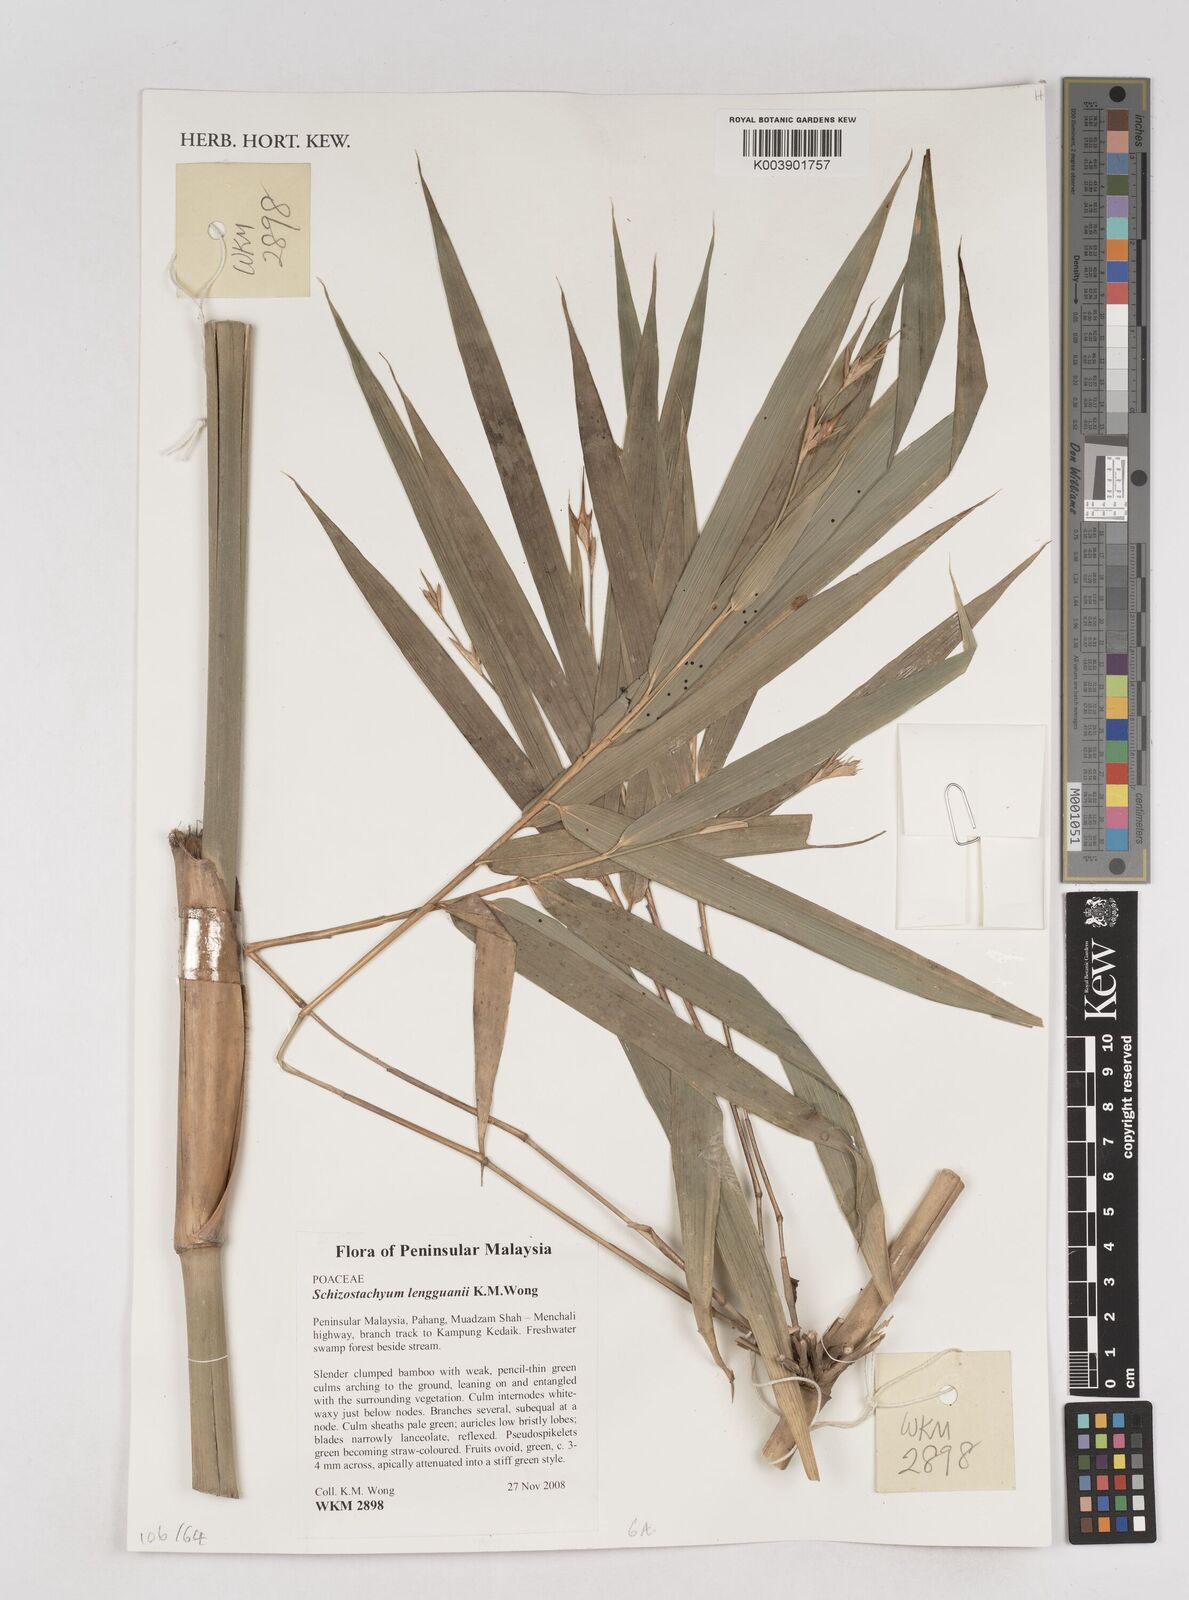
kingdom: Plantae
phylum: Tracheophyta
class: Liliopsida
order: Poales
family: Poaceae
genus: Schizostachyum
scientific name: Schizostachyum lengguanii
